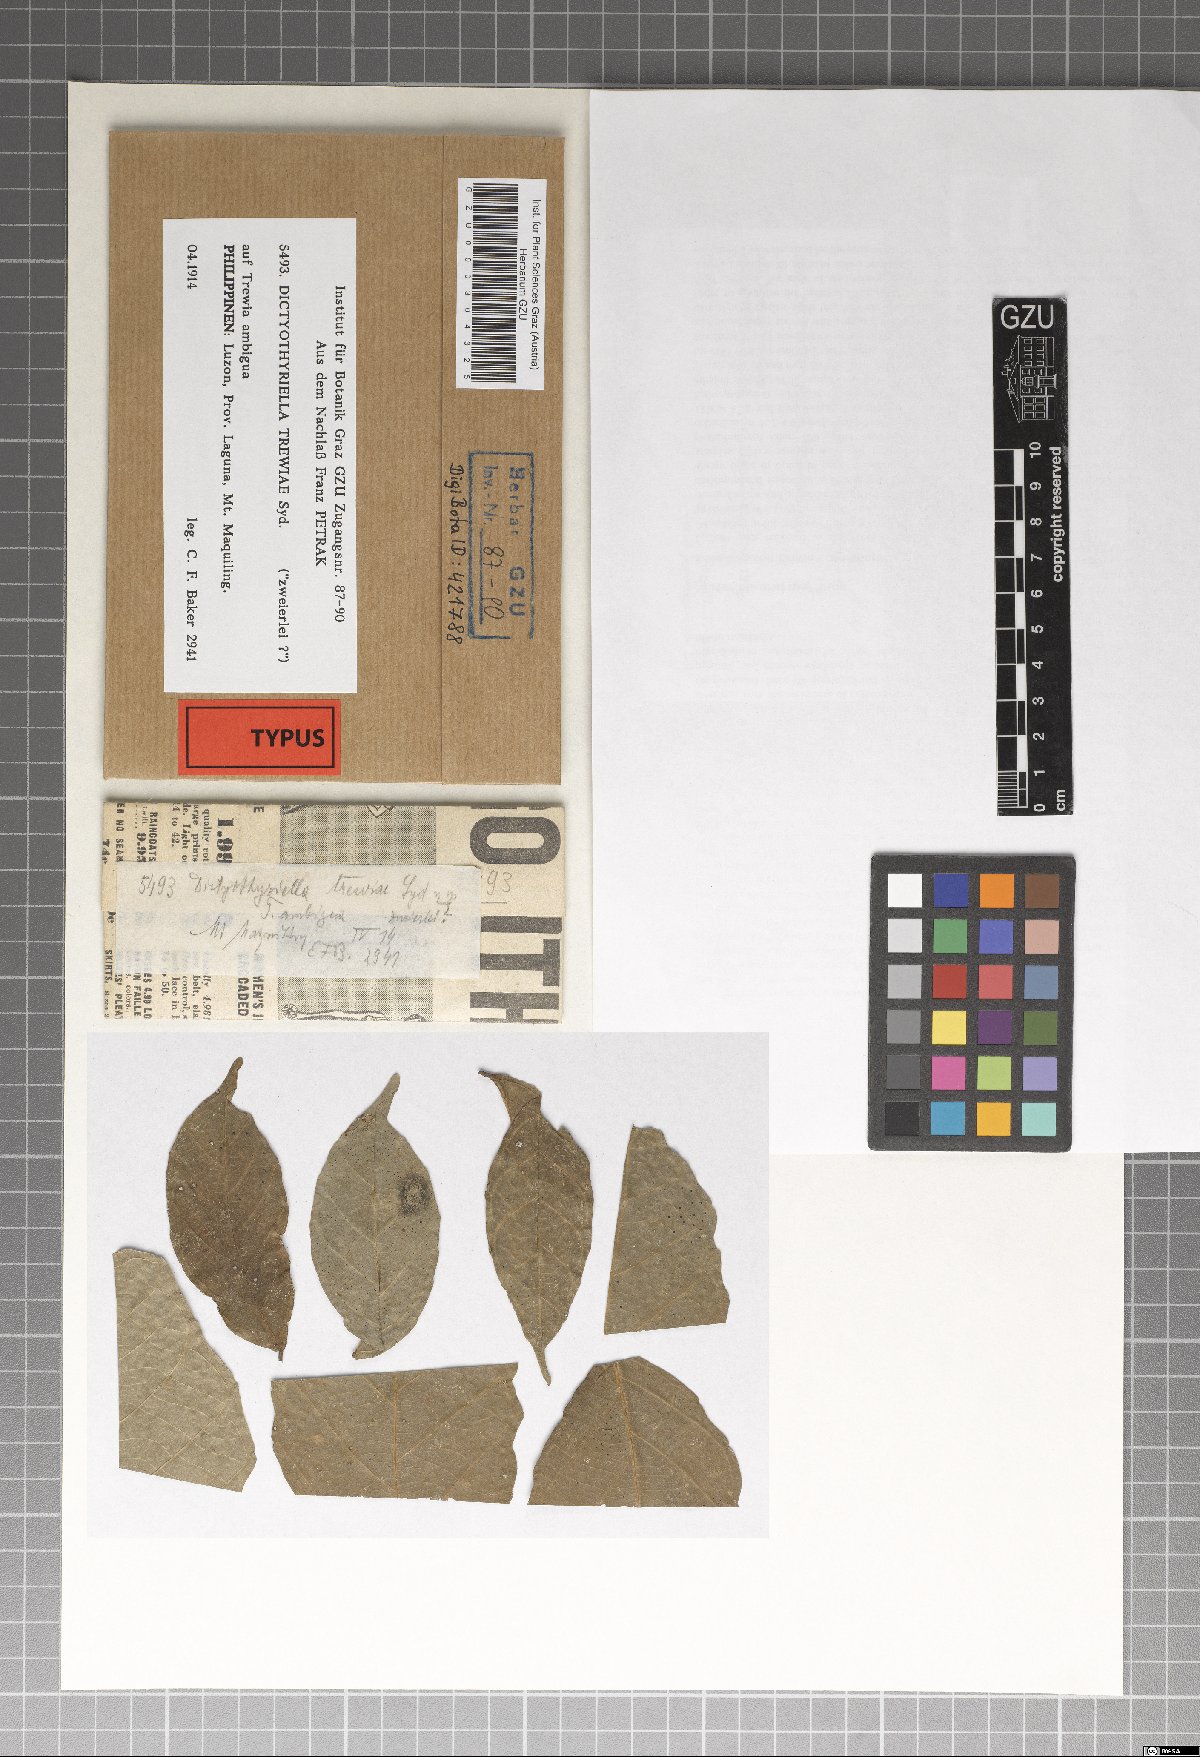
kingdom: Fungi
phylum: Ascomycota
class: Dothideomycetes
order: Microthyriales
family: Micropeltidaceae
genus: Micropeltis
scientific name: Micropeltis trewiae
